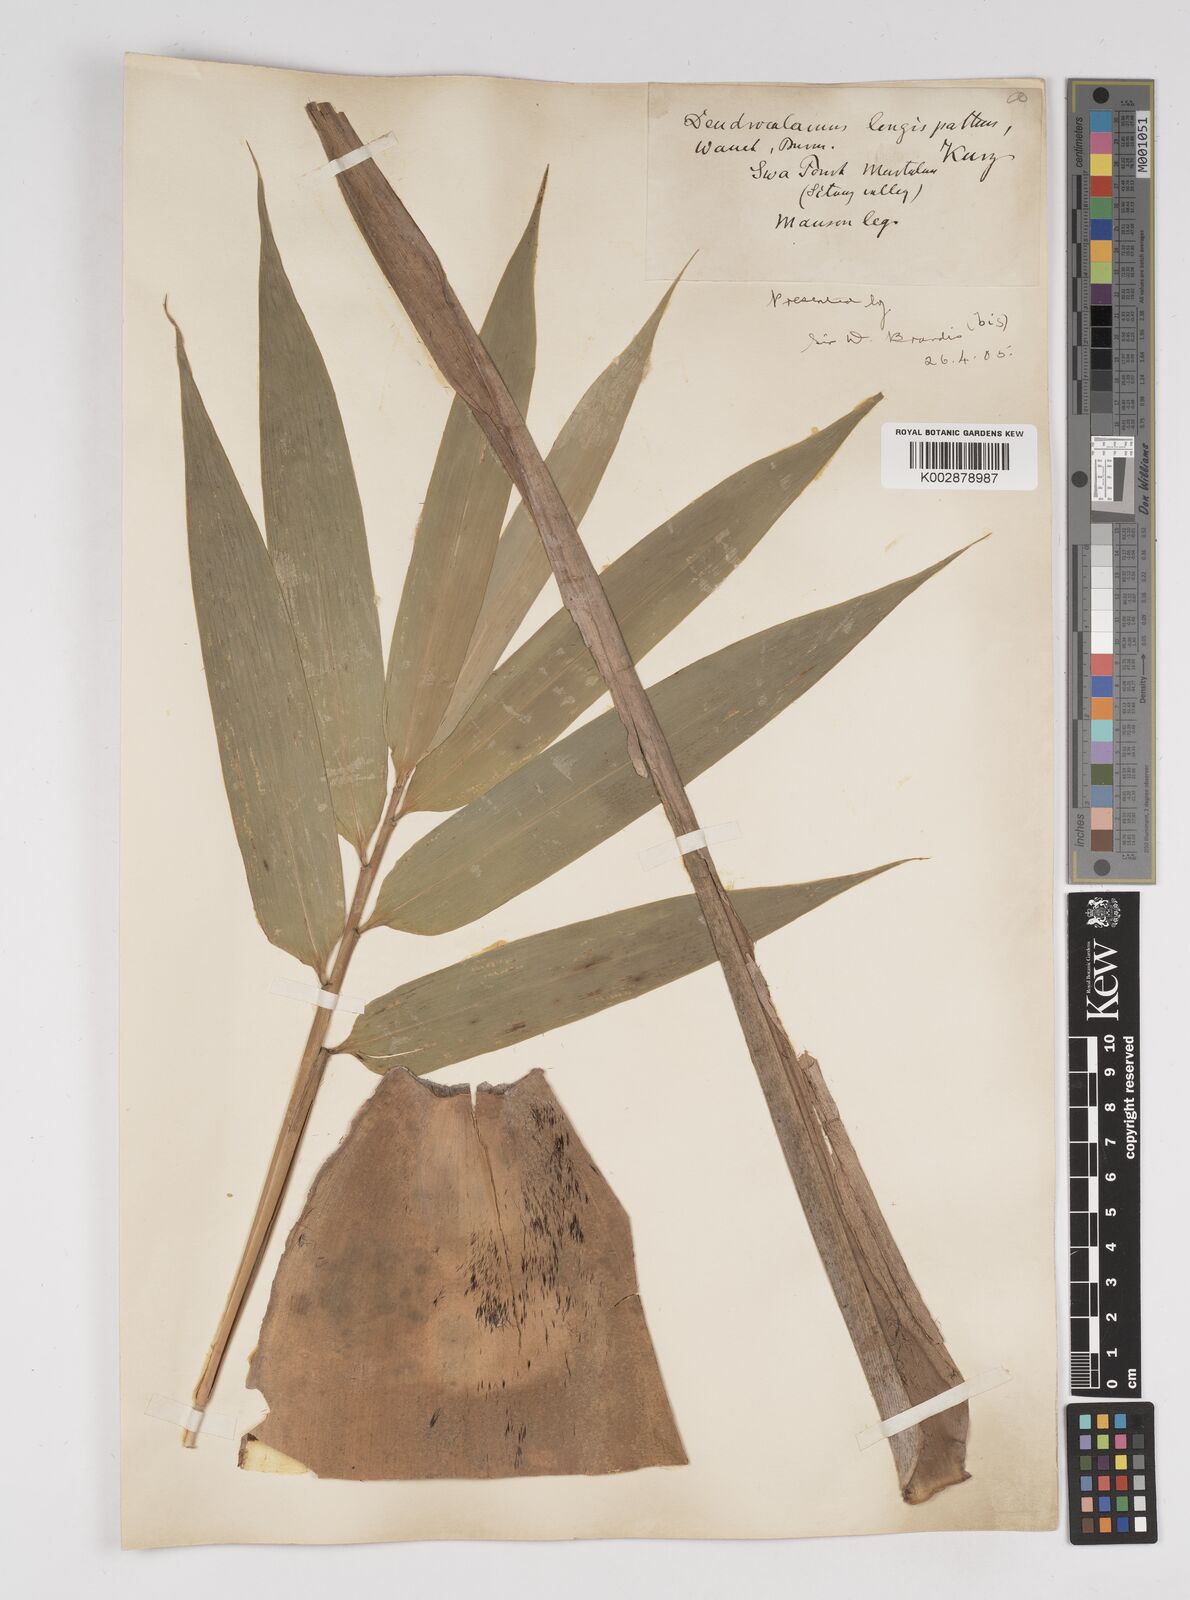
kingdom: Plantae
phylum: Tracheophyta
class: Liliopsida
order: Poales
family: Poaceae
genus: Dendrocalamus
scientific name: Dendrocalamus longispathus
